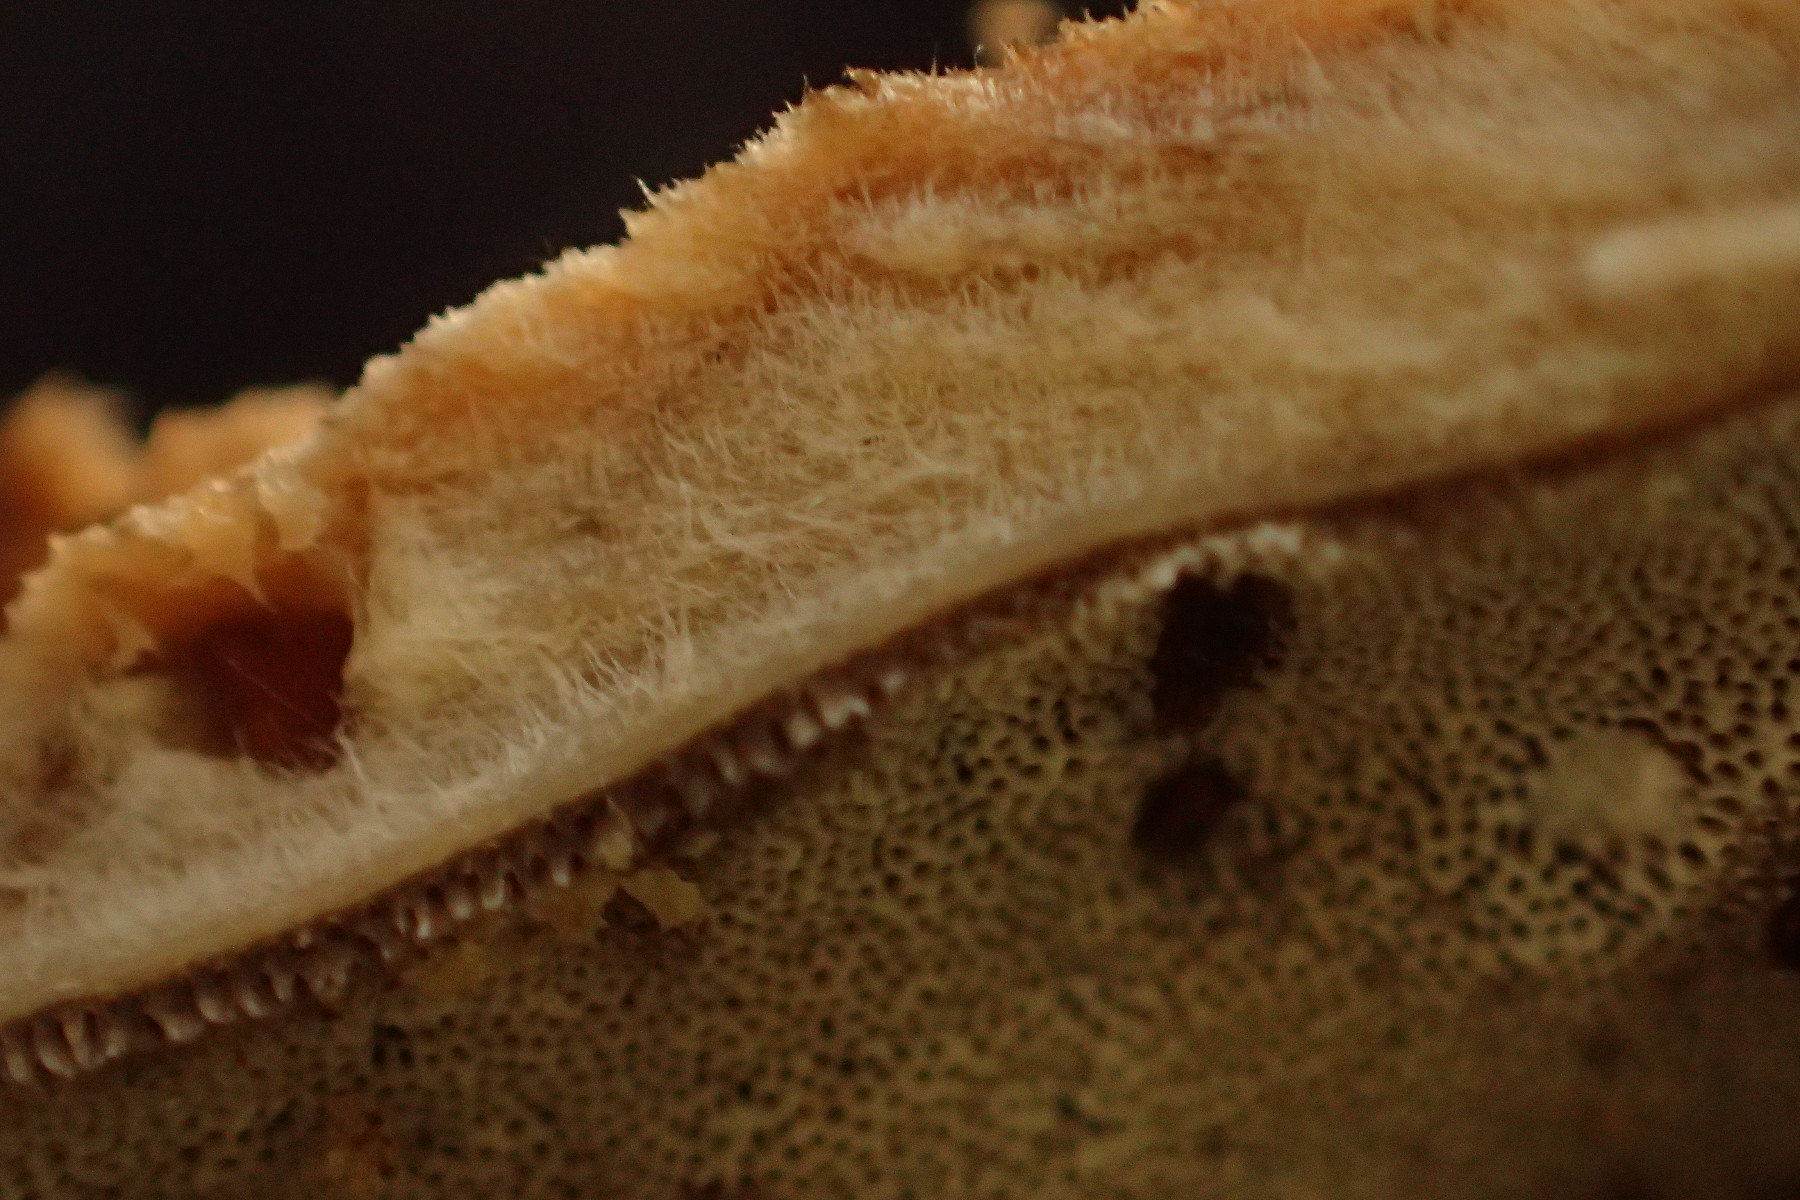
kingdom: Fungi
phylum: Basidiomycota
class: Agaricomycetes
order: Polyporales
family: Phanerochaetaceae
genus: Bjerkandera
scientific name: Bjerkandera fumosa
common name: grågul sodporesvamp
